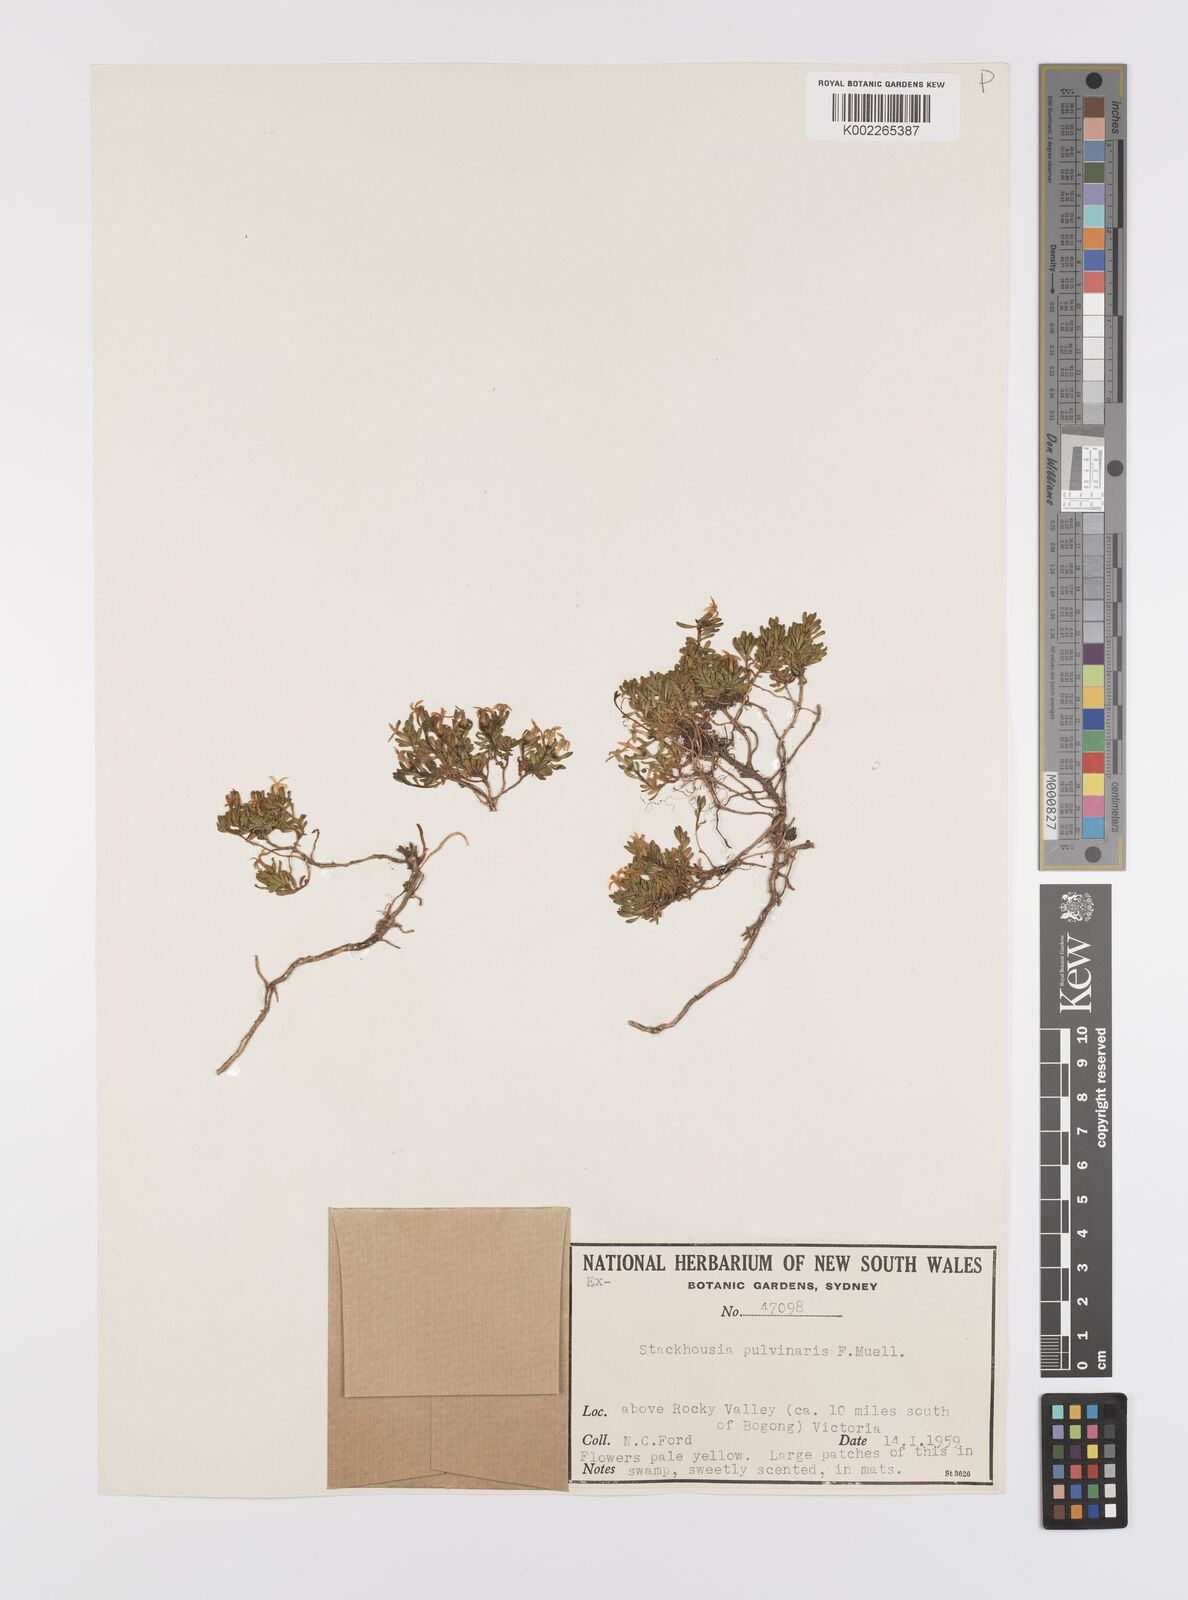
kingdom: Plantae
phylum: Tracheophyta
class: Magnoliopsida
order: Celastrales
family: Celastraceae
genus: Stackhousia
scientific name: Stackhousia pulvinaris
